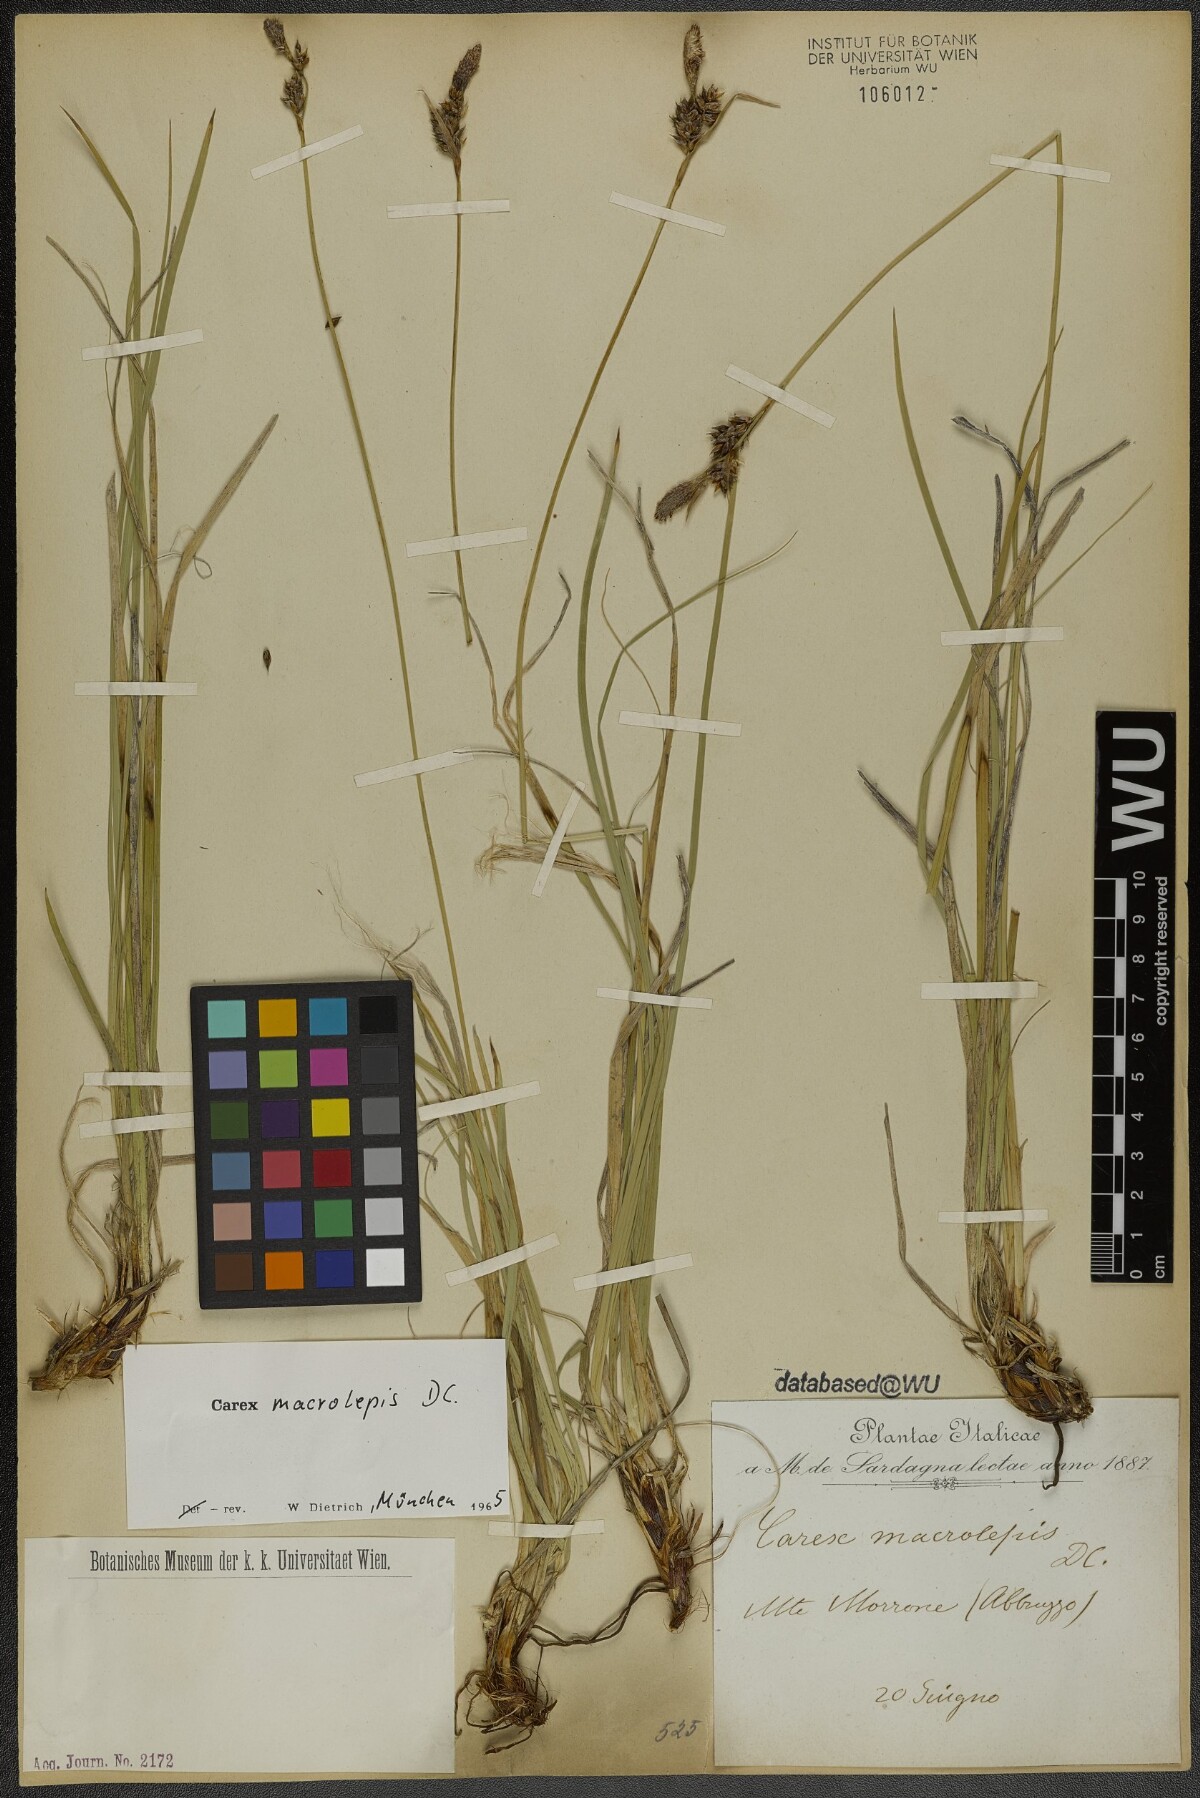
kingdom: Plantae
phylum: Tracheophyta
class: Liliopsida
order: Poales
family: Cyperaceae
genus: Carex
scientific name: Carex macrolepis
